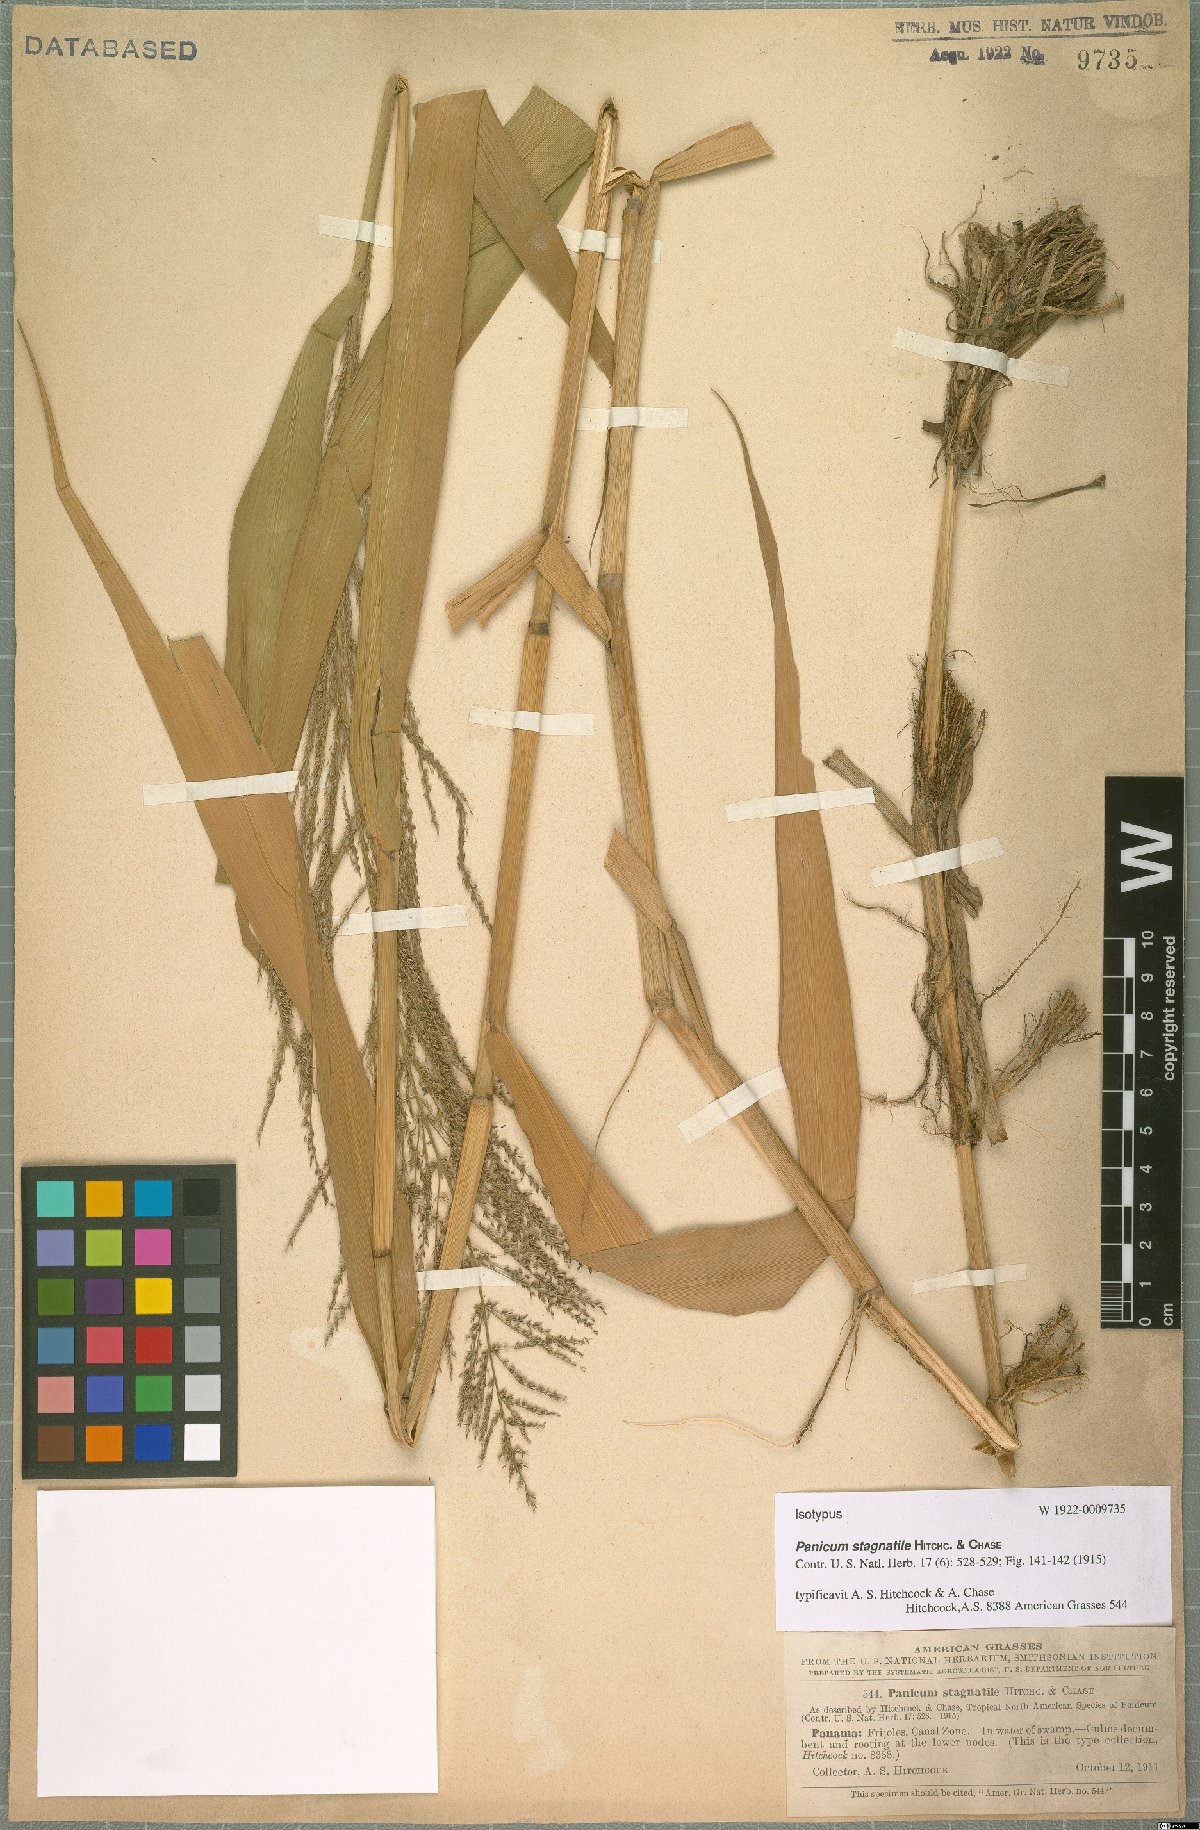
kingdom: Plantae
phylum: Tracheophyta
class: Liliopsida
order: Poales
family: Poaceae
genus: Hymenachne
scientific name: Hymenachne stagnatilis
